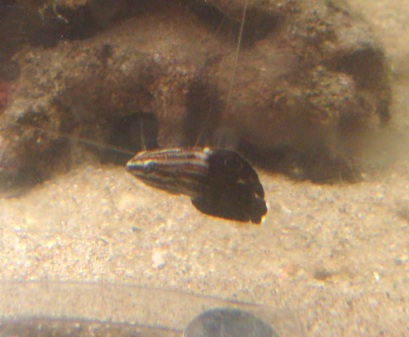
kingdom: Animalia
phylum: Chordata
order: Perciformes
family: Labridae
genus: Halichoeres
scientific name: Halichoeres marginatus
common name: Dusky wrasse
